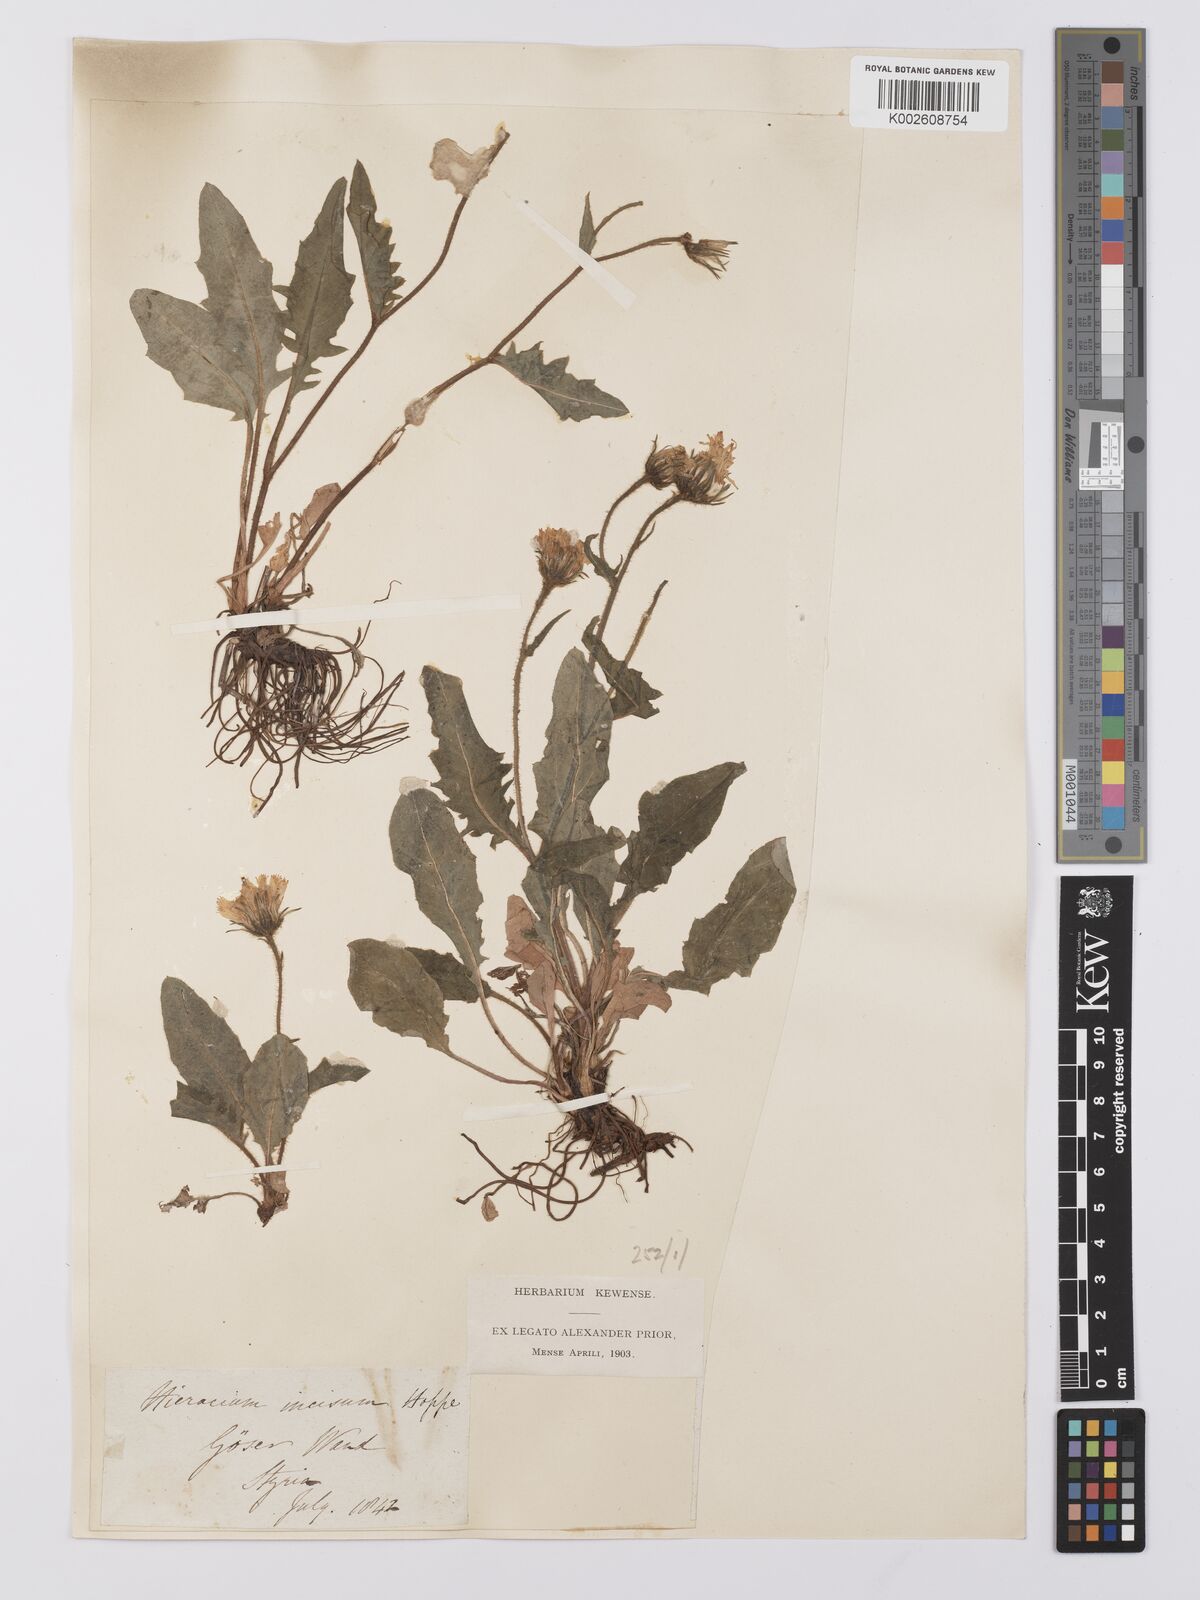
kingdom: Plantae
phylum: Tracheophyta
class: Magnoliopsida
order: Asterales
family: Asteraceae
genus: Hieracium
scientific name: Hieracium humile
